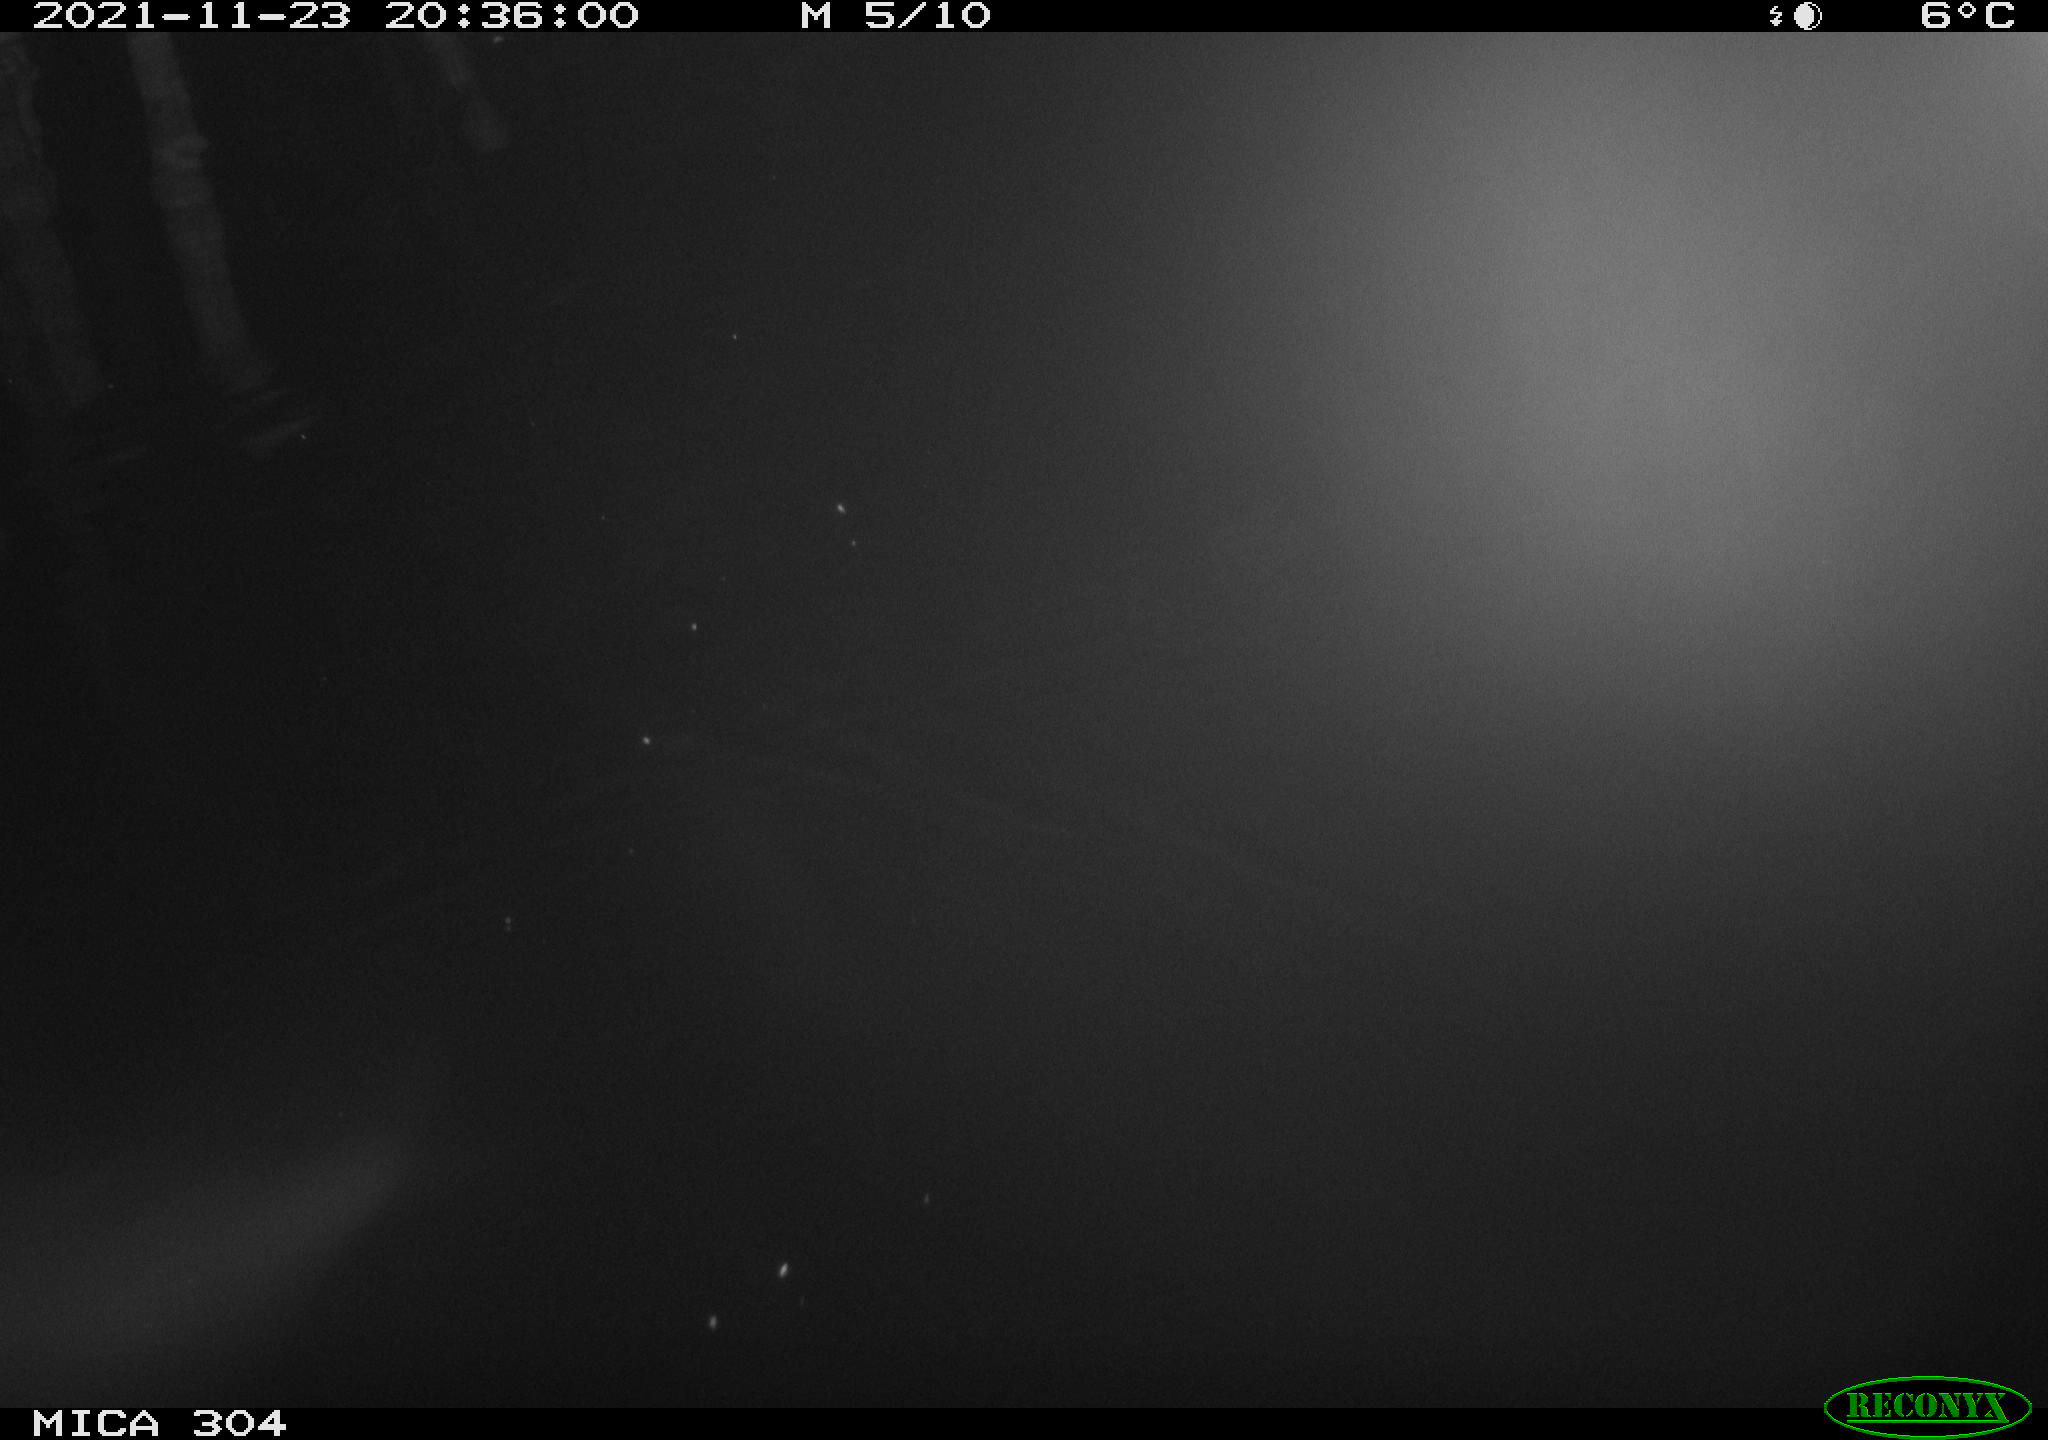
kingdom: Animalia
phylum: Chordata
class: Mammalia
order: Rodentia
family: Muridae
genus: Rattus
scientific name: Rattus norvegicus
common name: Brown rat
